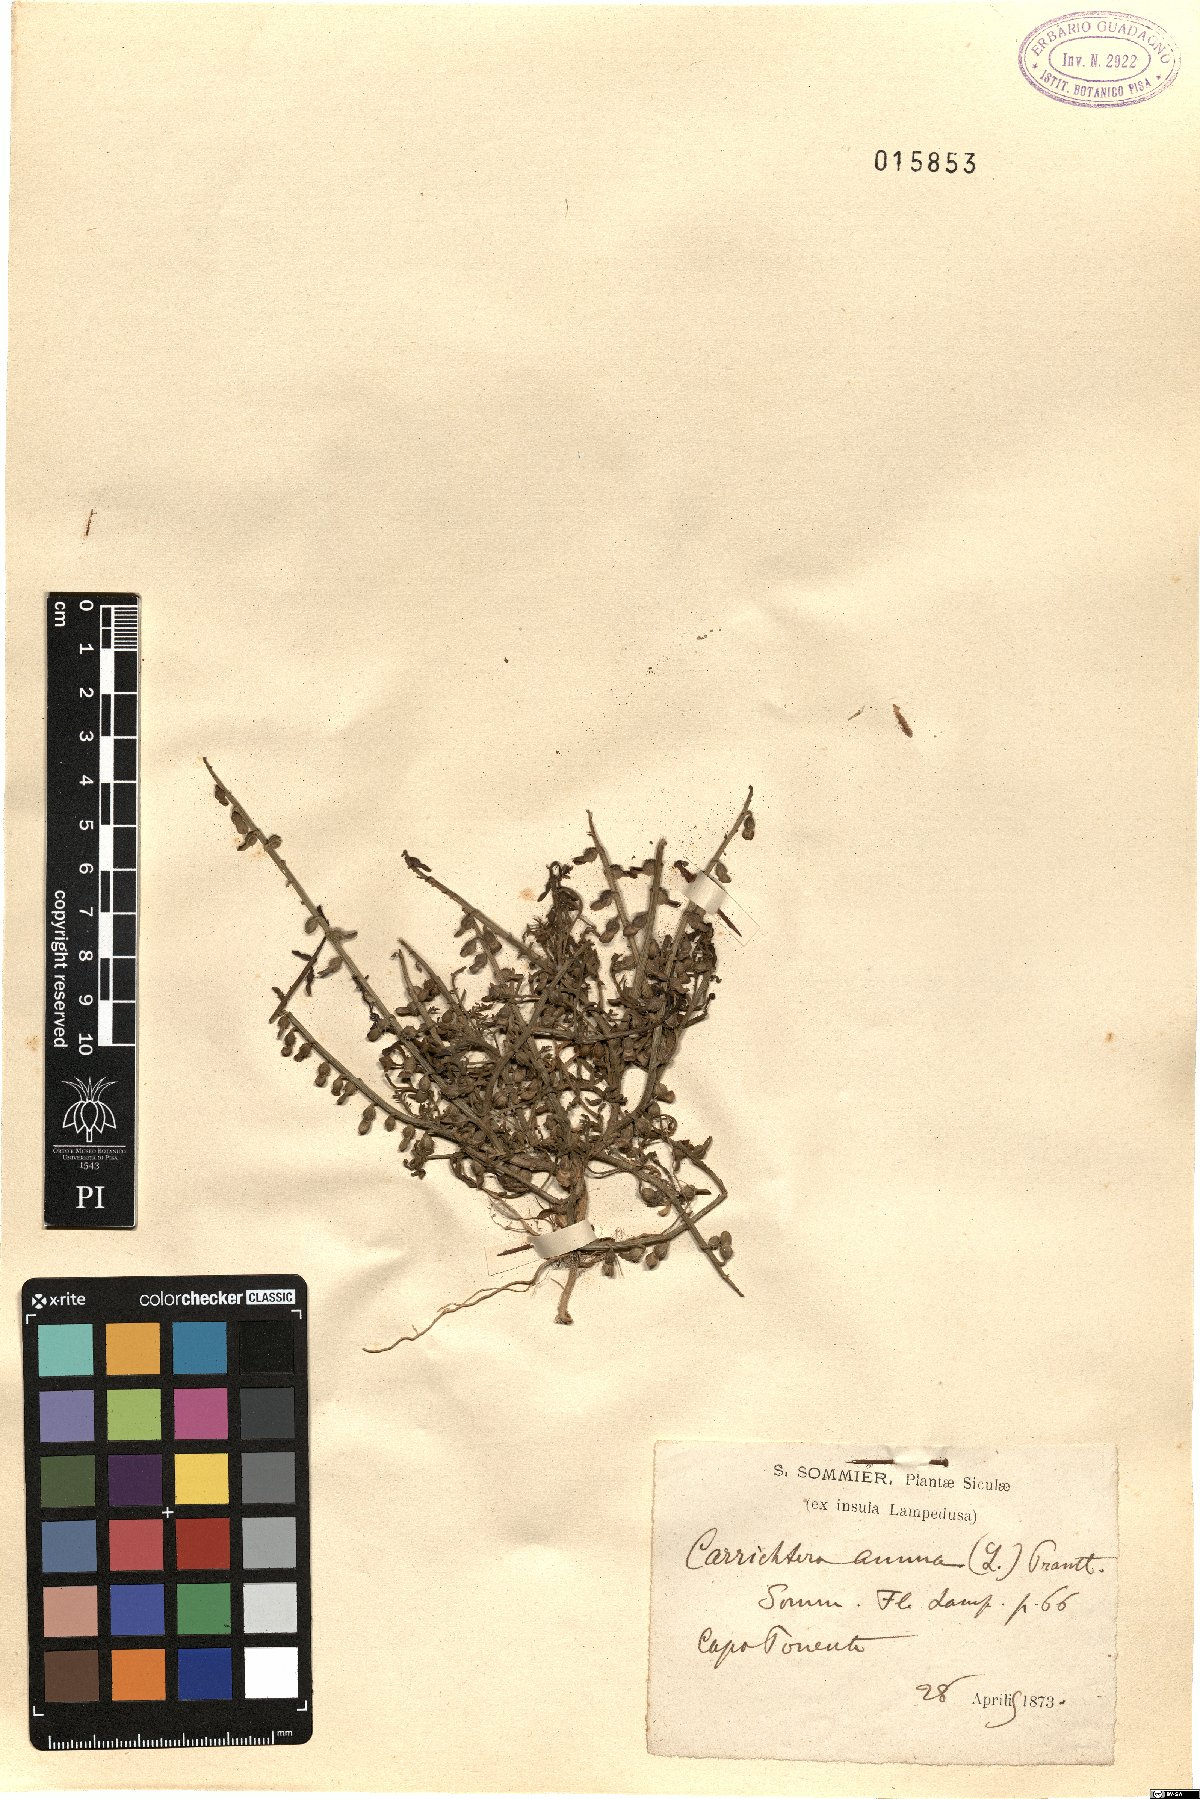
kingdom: Plantae
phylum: Tracheophyta
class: Magnoliopsida
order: Brassicales
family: Brassicaceae
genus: Carrichtera
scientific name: Carrichtera annua
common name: Cress rocket
